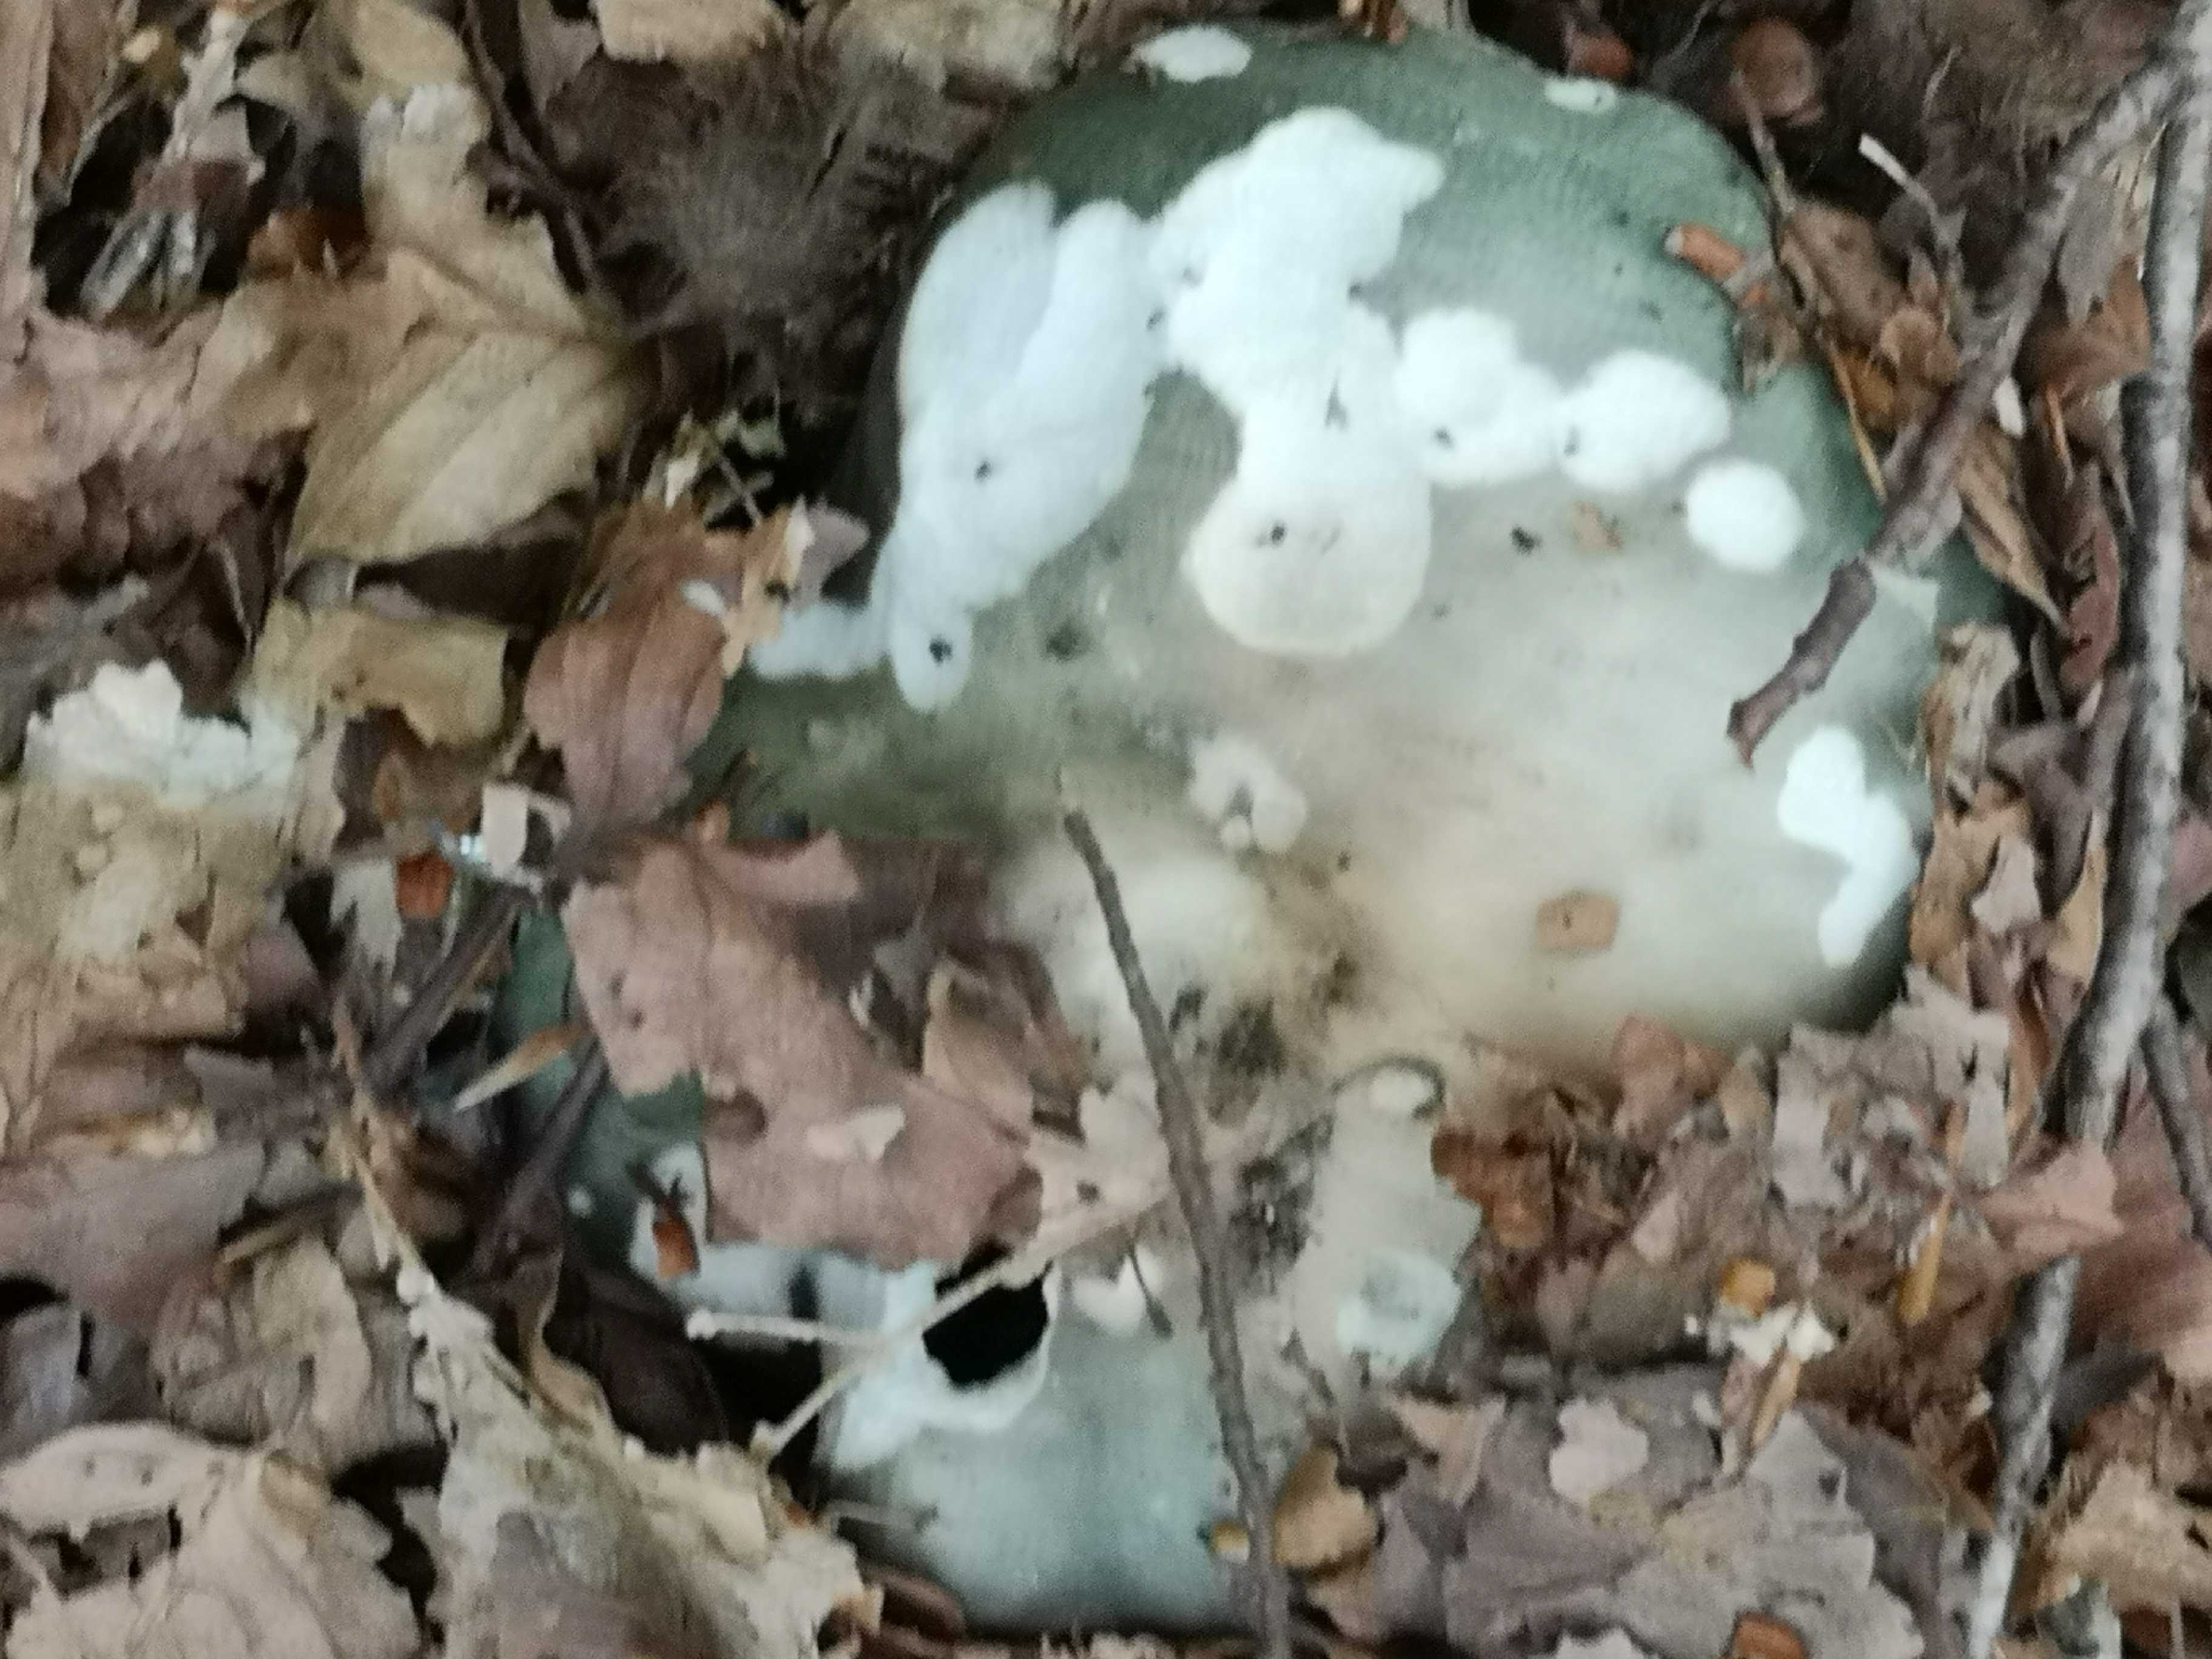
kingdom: Fungi
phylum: Basidiomycota
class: Agaricomycetes
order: Russulales
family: Russulaceae
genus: Russula
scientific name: Russula heterophylla
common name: gaffelbladet skørhat
